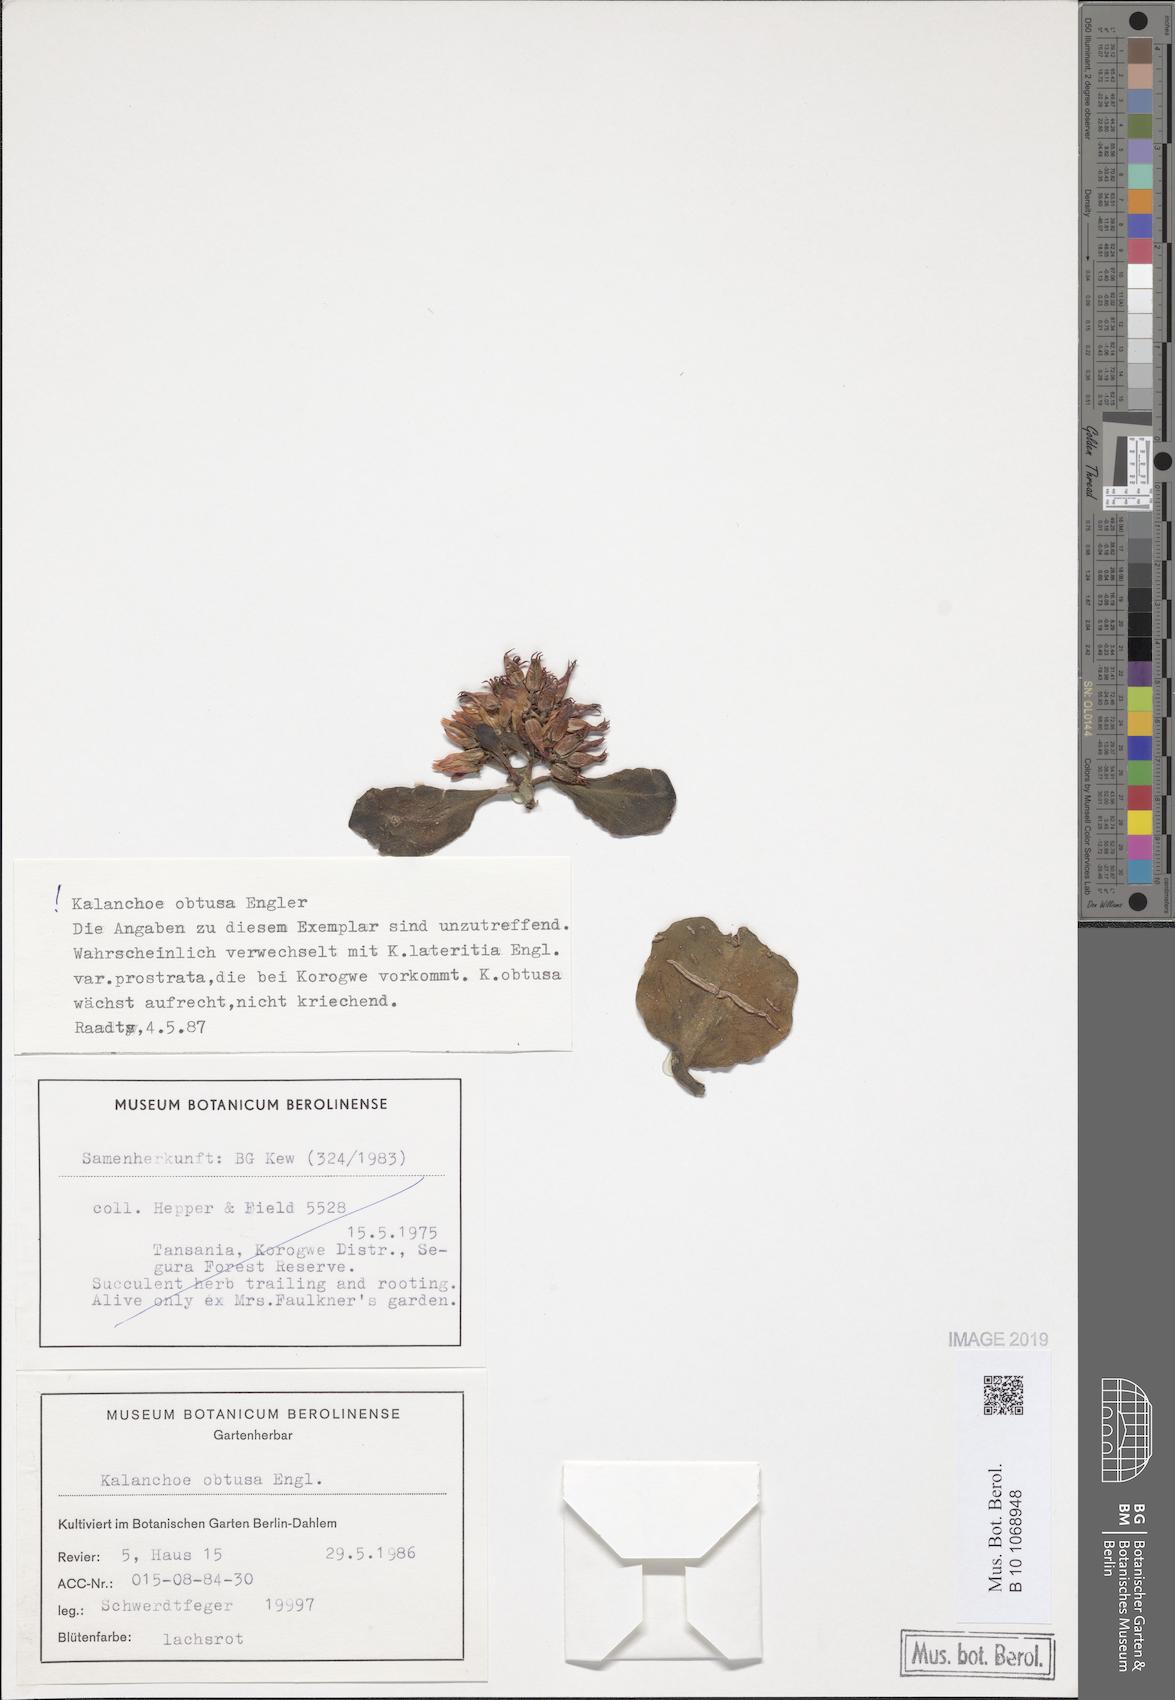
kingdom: Plantae
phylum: Tracheophyta
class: Magnoliopsida
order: Saxifragales
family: Crassulaceae
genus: Kalanchoe
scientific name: Kalanchoe obtusa
